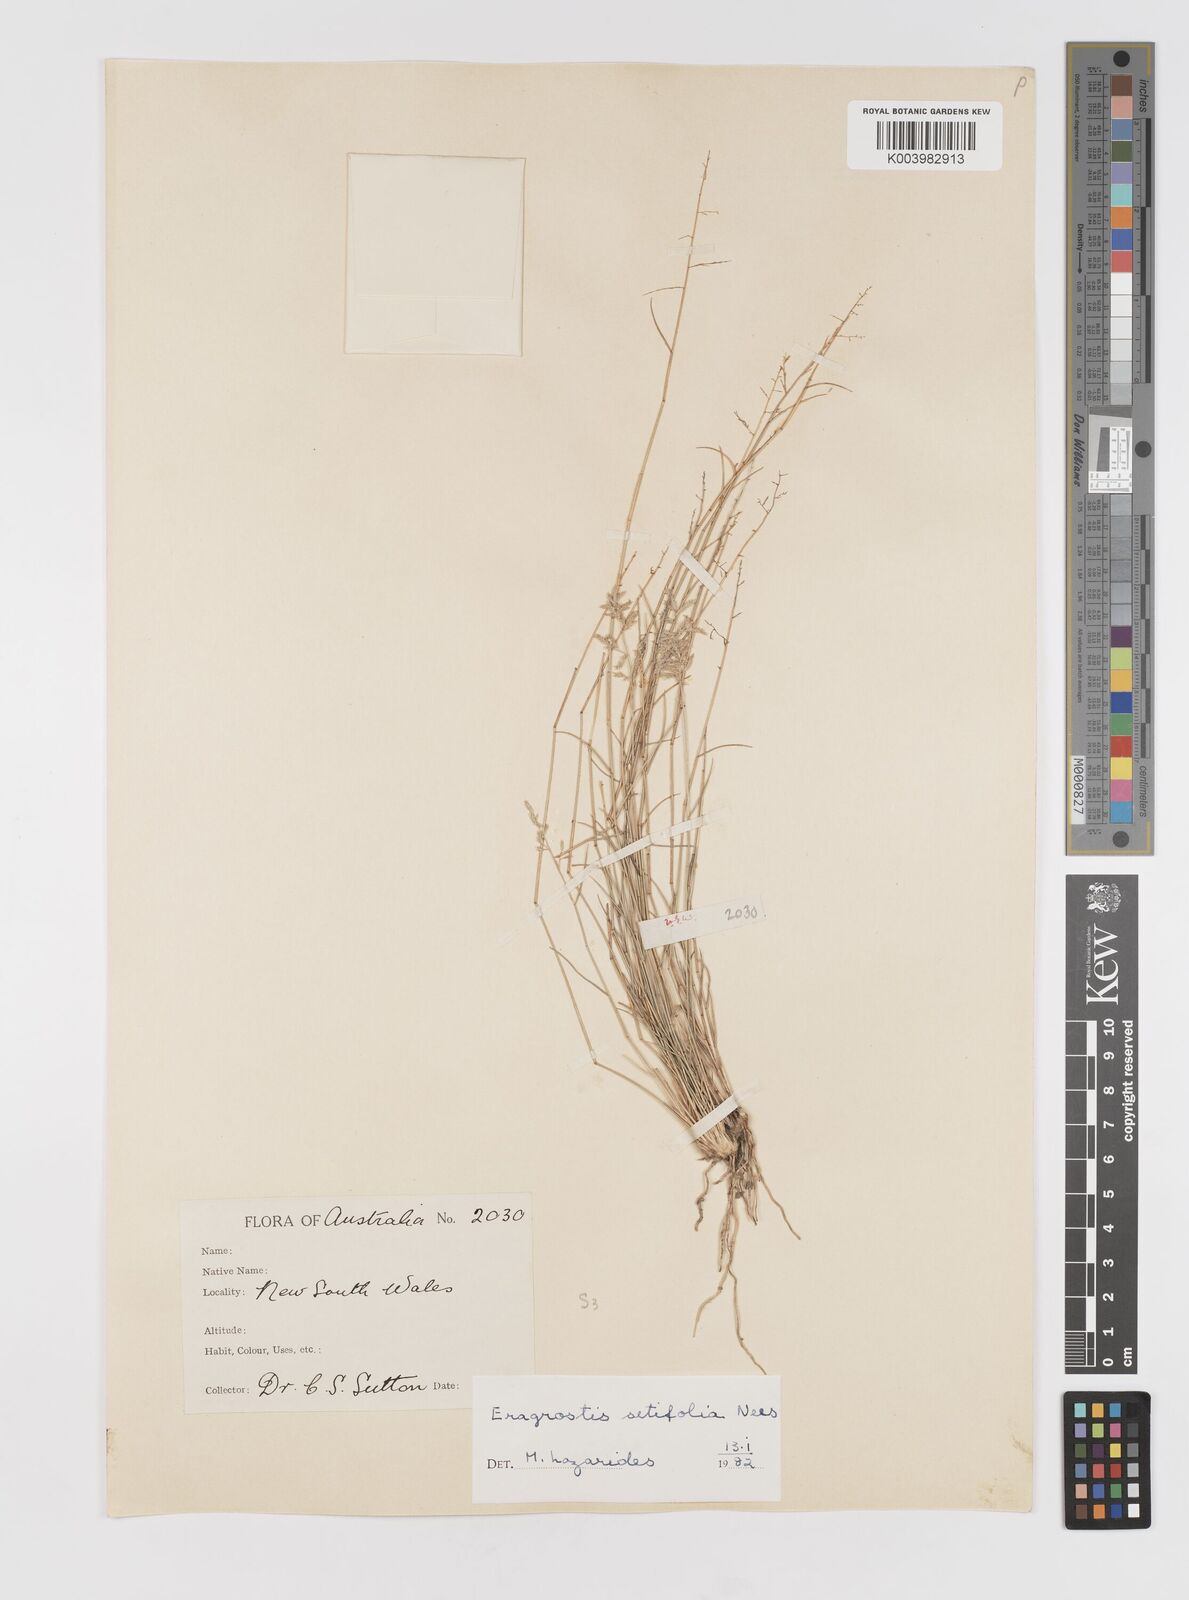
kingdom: Plantae
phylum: Tracheophyta
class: Liliopsida
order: Poales
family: Poaceae
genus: Eragrostis
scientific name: Eragrostis setifolia
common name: Bristleleaf lovegrass
